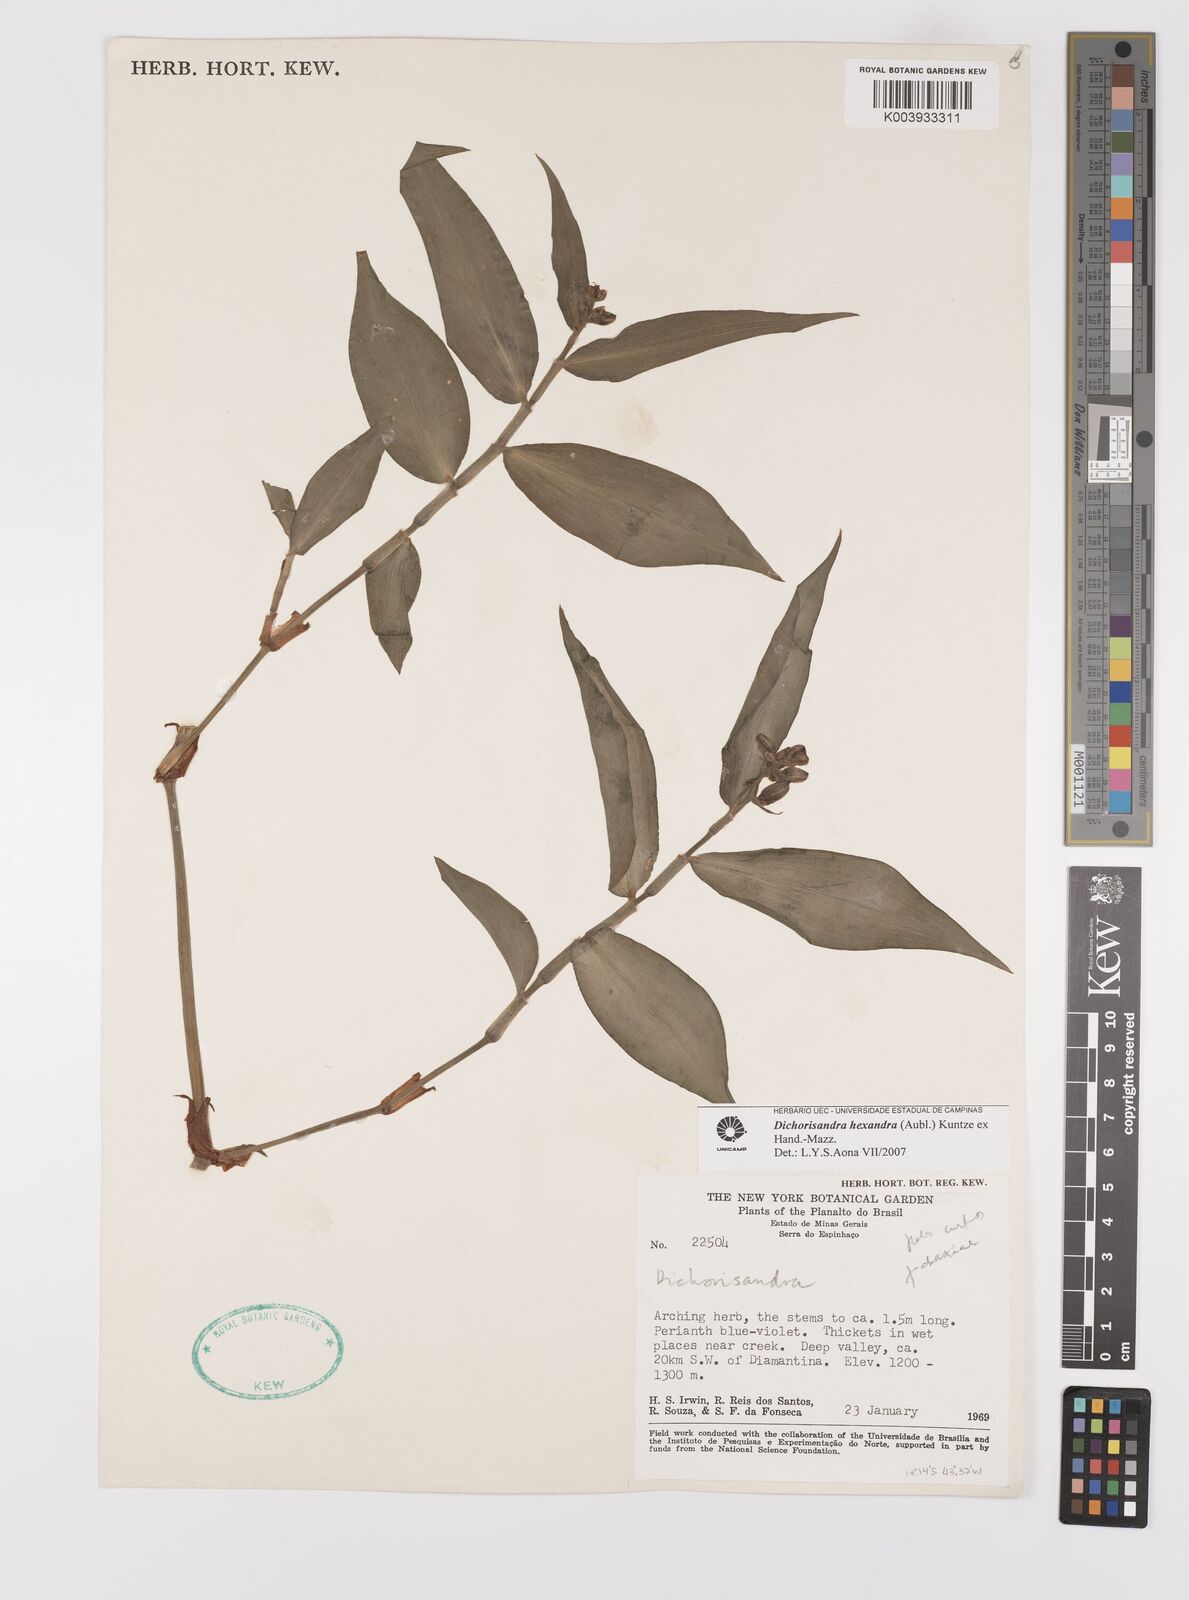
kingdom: Plantae
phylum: Tracheophyta
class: Liliopsida
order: Commelinales
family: Commelinaceae
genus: Dichorisandra
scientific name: Dichorisandra hexandra
